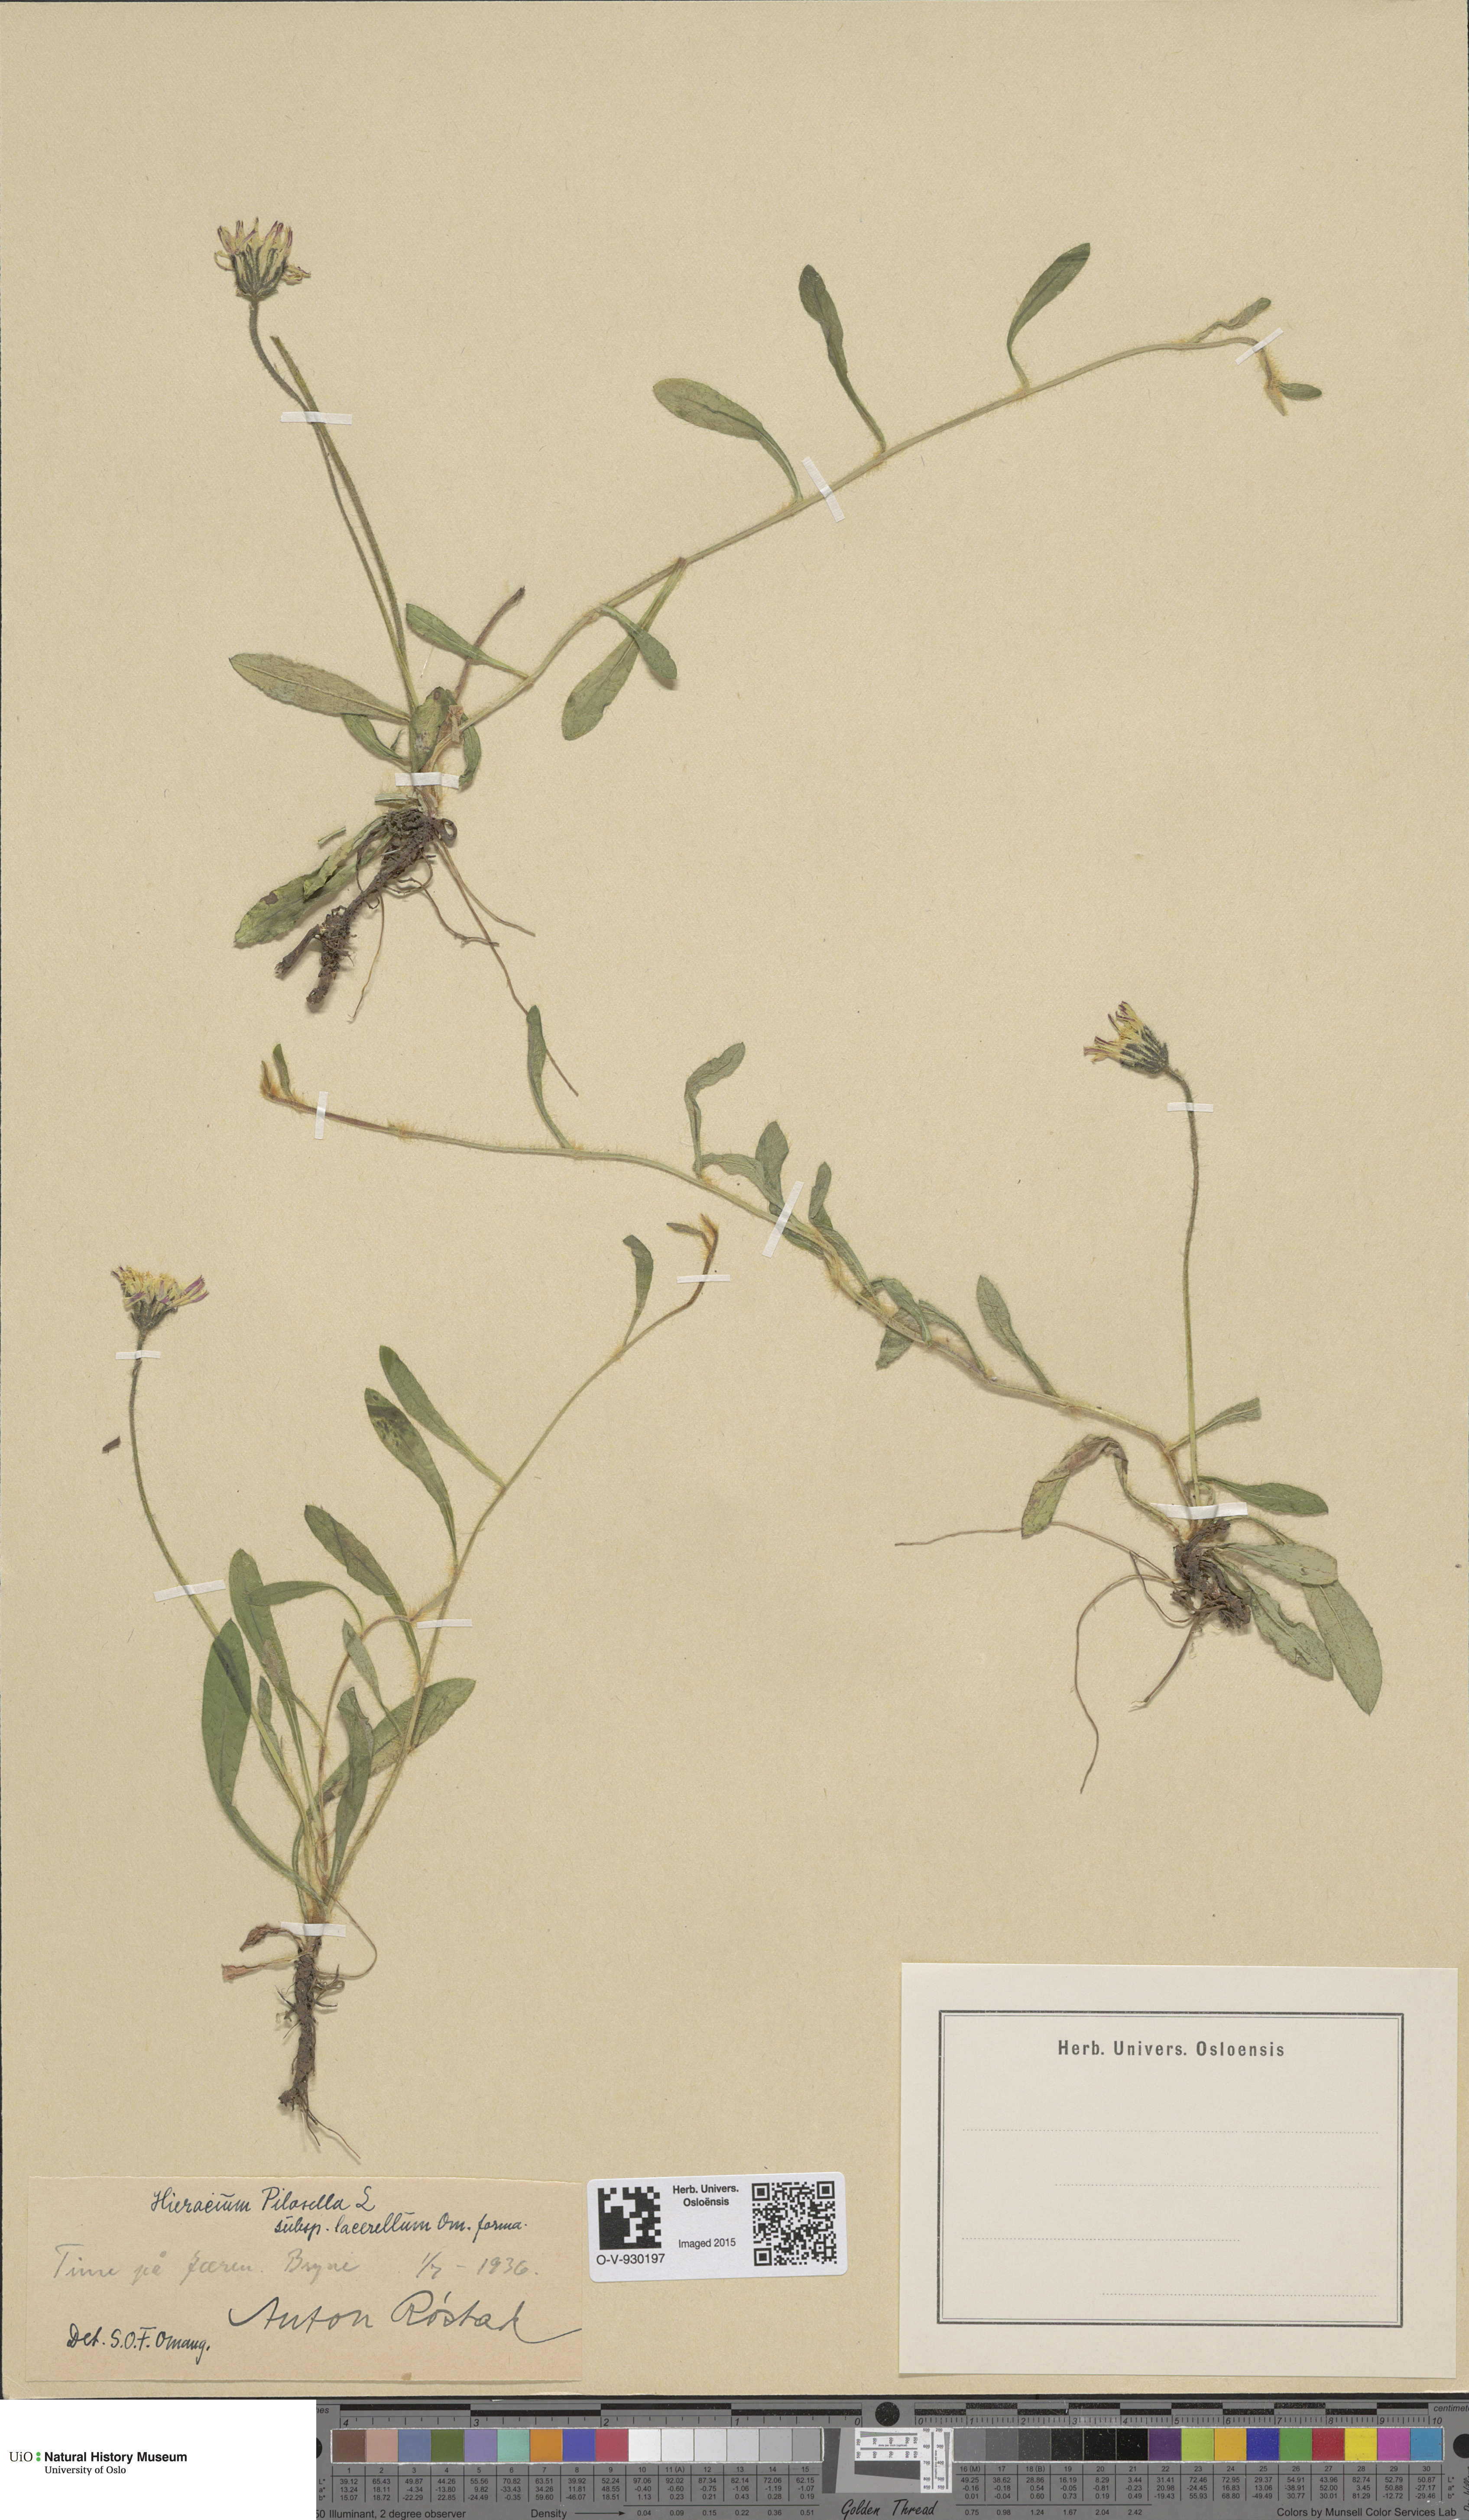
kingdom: Plantae
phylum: Tracheophyta
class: Magnoliopsida
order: Asterales
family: Asteraceae
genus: Pilosella
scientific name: Pilosella officinarum
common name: Mouse-ear hawkweed
